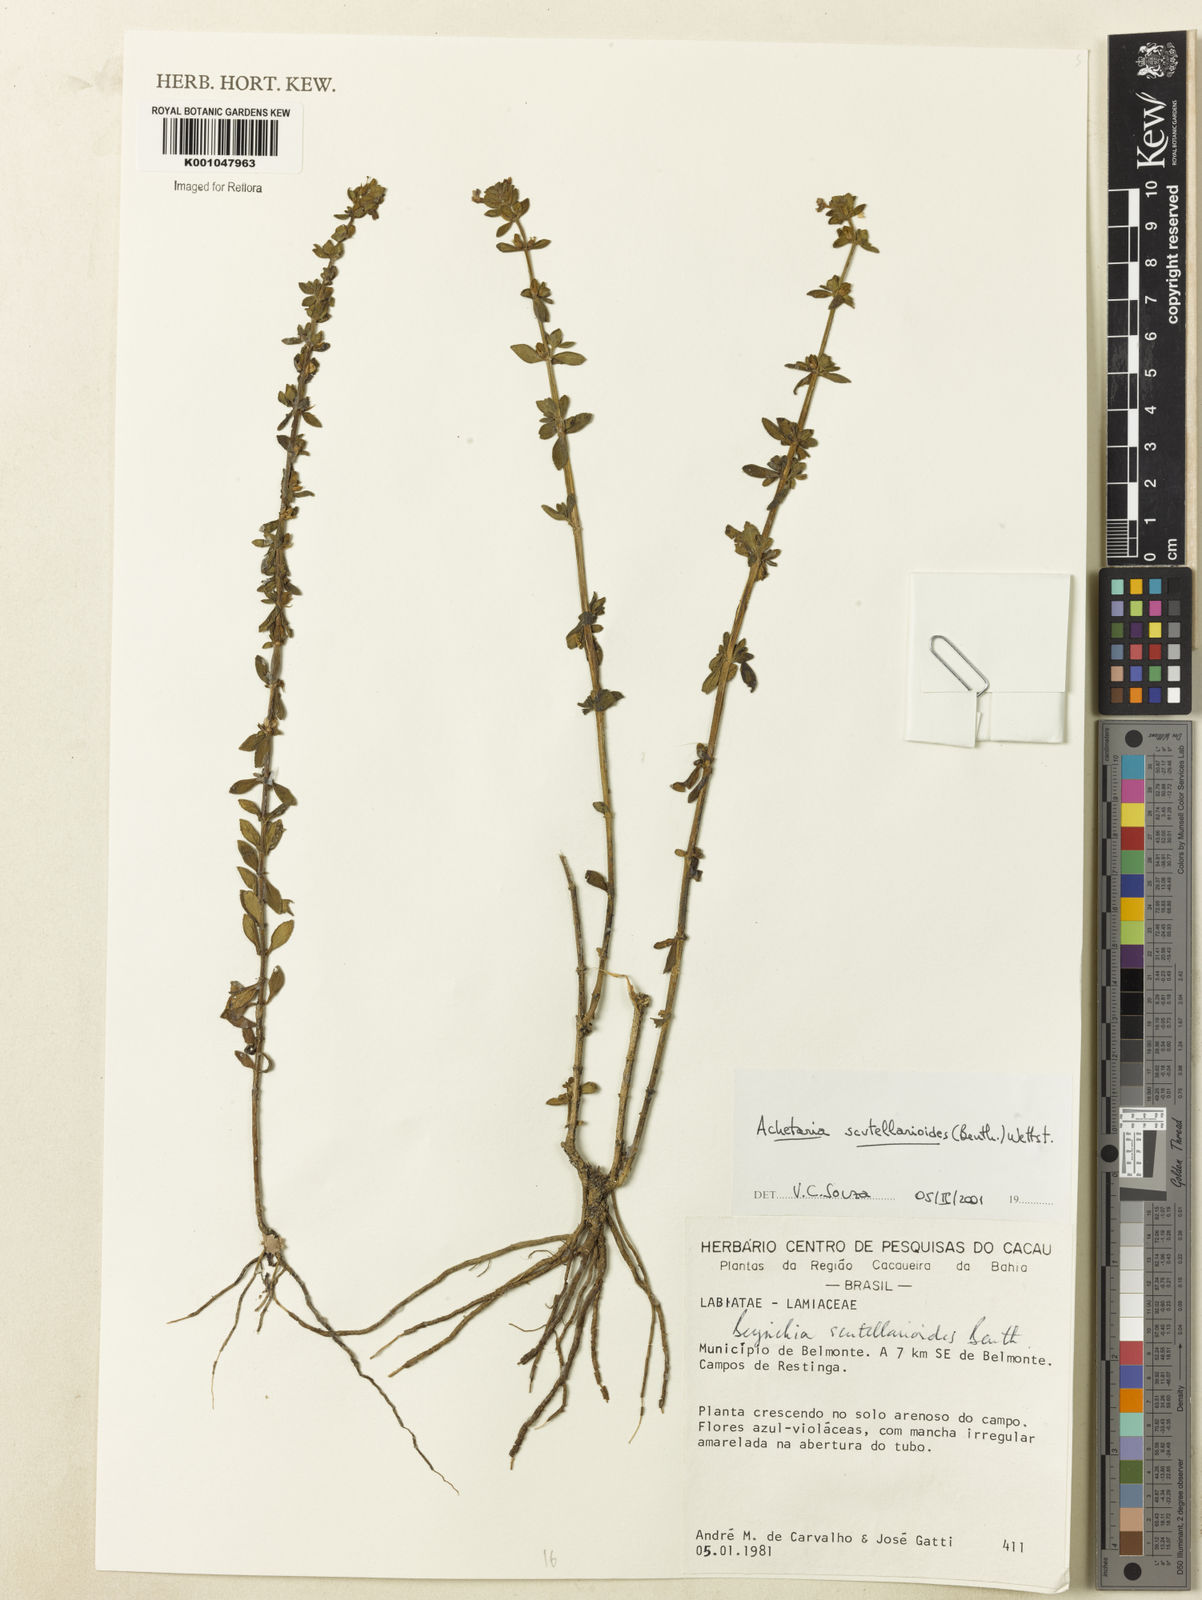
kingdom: Plantae
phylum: Tracheophyta
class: Magnoliopsida
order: Lamiales
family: Plantaginaceae
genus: Matourea
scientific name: Matourea scutellarioides
